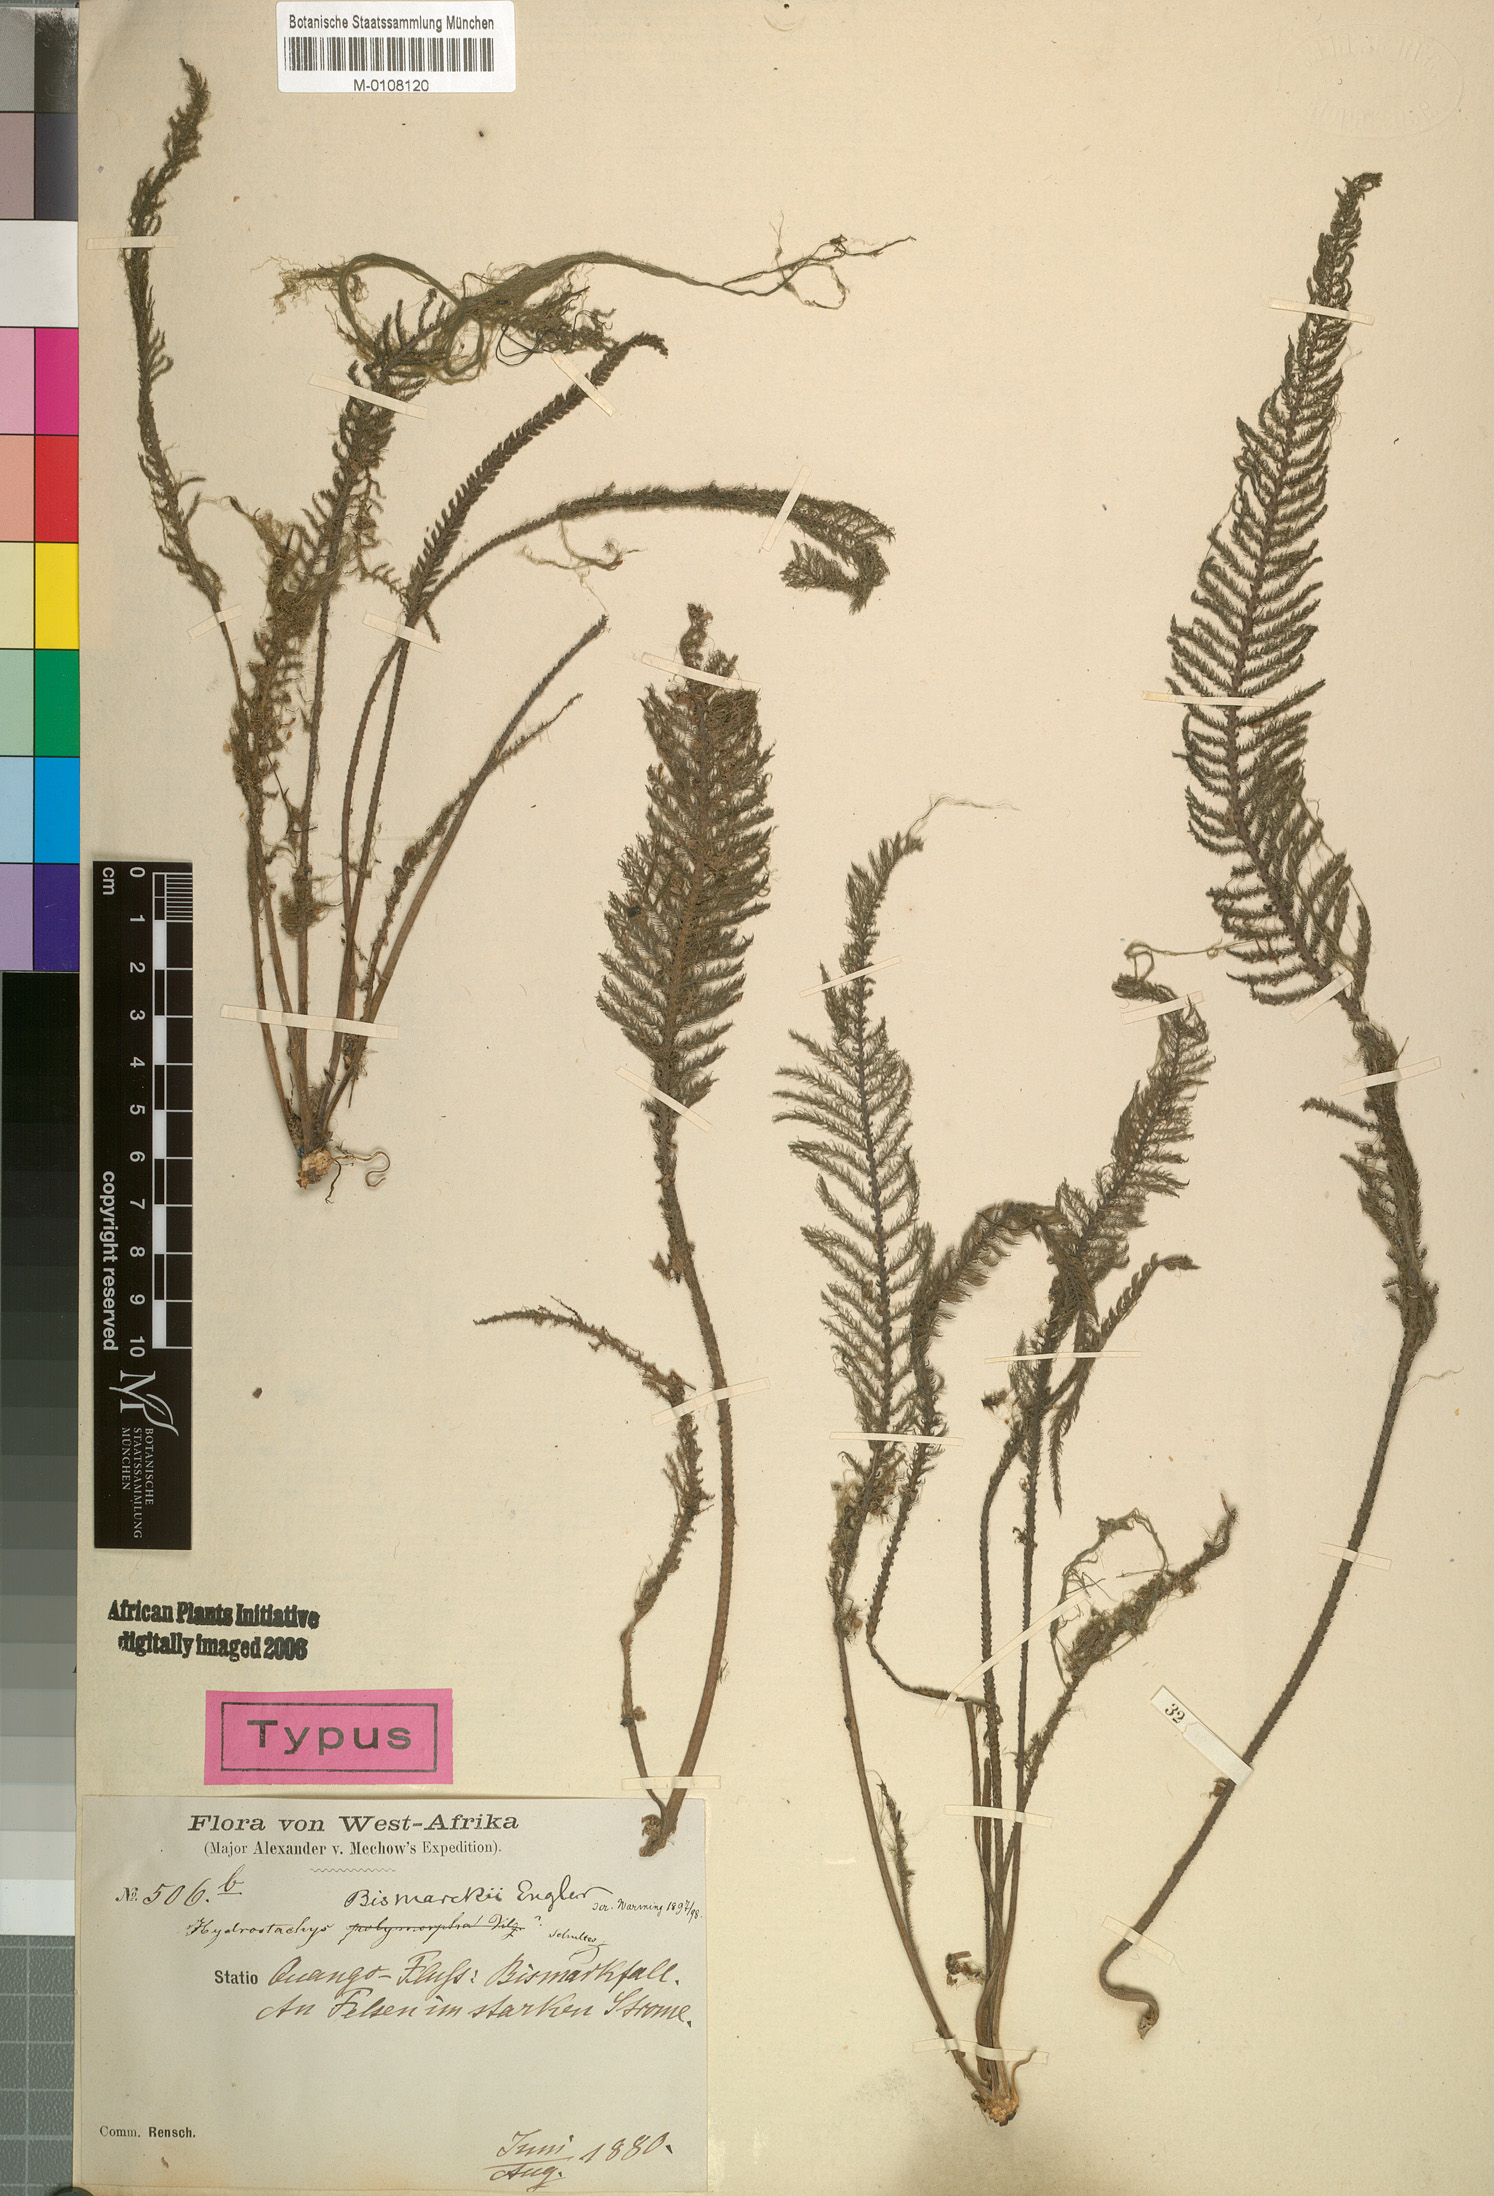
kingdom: Plantae
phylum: Tracheophyta
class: Magnoliopsida
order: Cornales
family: Hydrostachyaceae
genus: Hydrostachys
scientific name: Hydrostachys bismarckii
